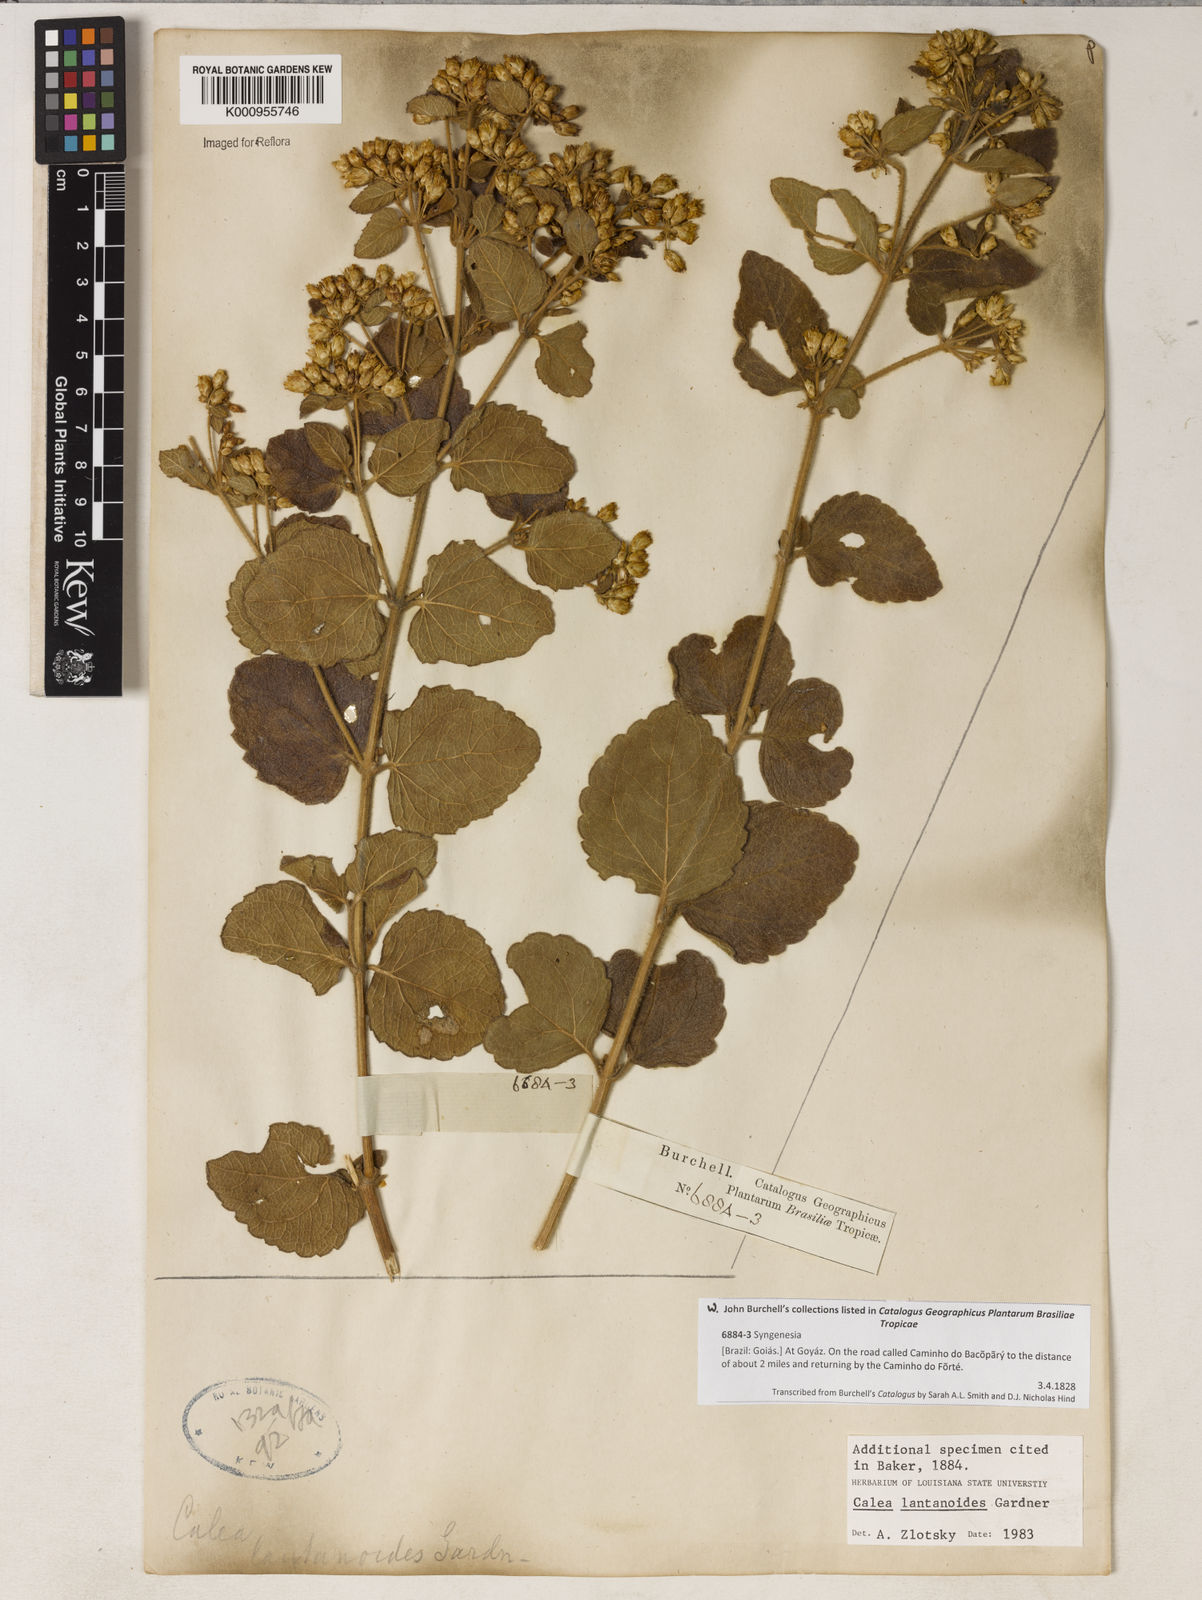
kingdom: Plantae
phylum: Tracheophyta
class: Magnoliopsida
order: Asterales
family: Asteraceae
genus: Calea
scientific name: Calea lantanoides
